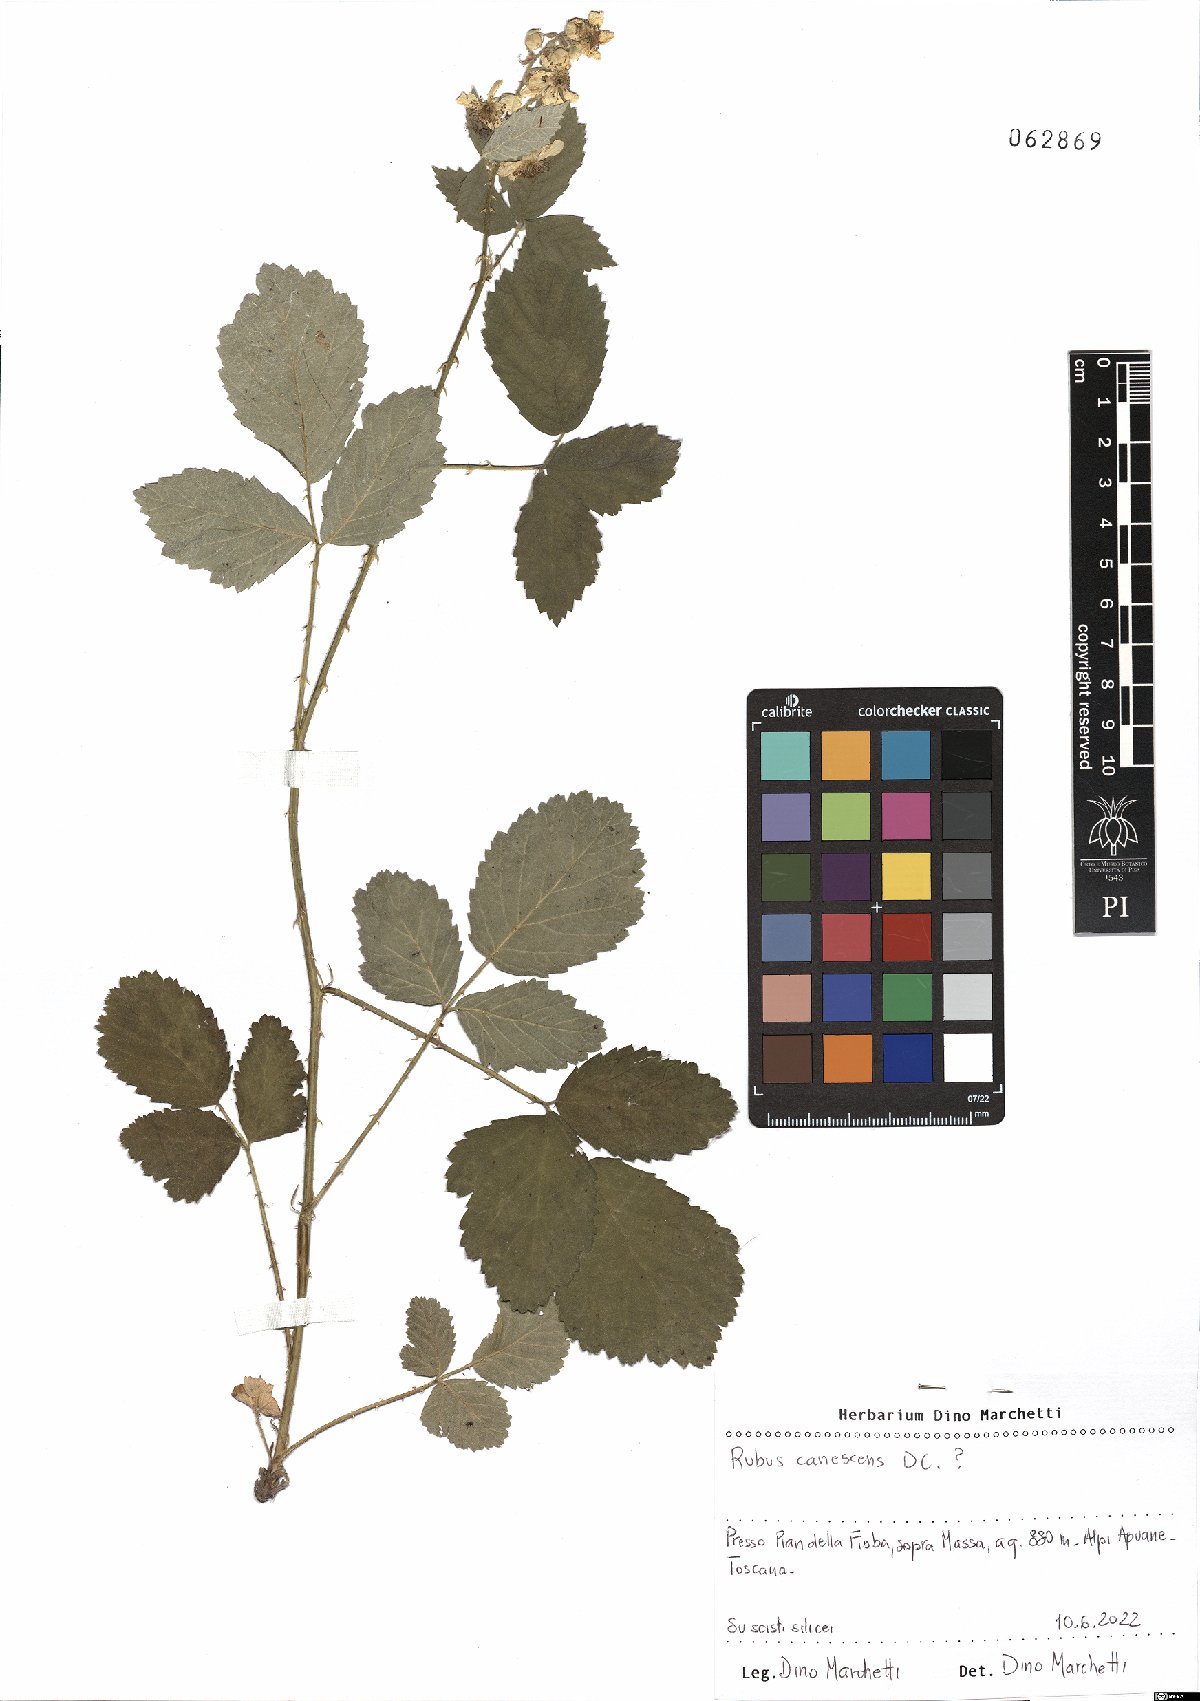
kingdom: Plantae
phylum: Tracheophyta
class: Magnoliopsida
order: Rosales
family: Rosaceae
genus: Rubus
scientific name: Rubus canescens
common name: Wooly blackberry
